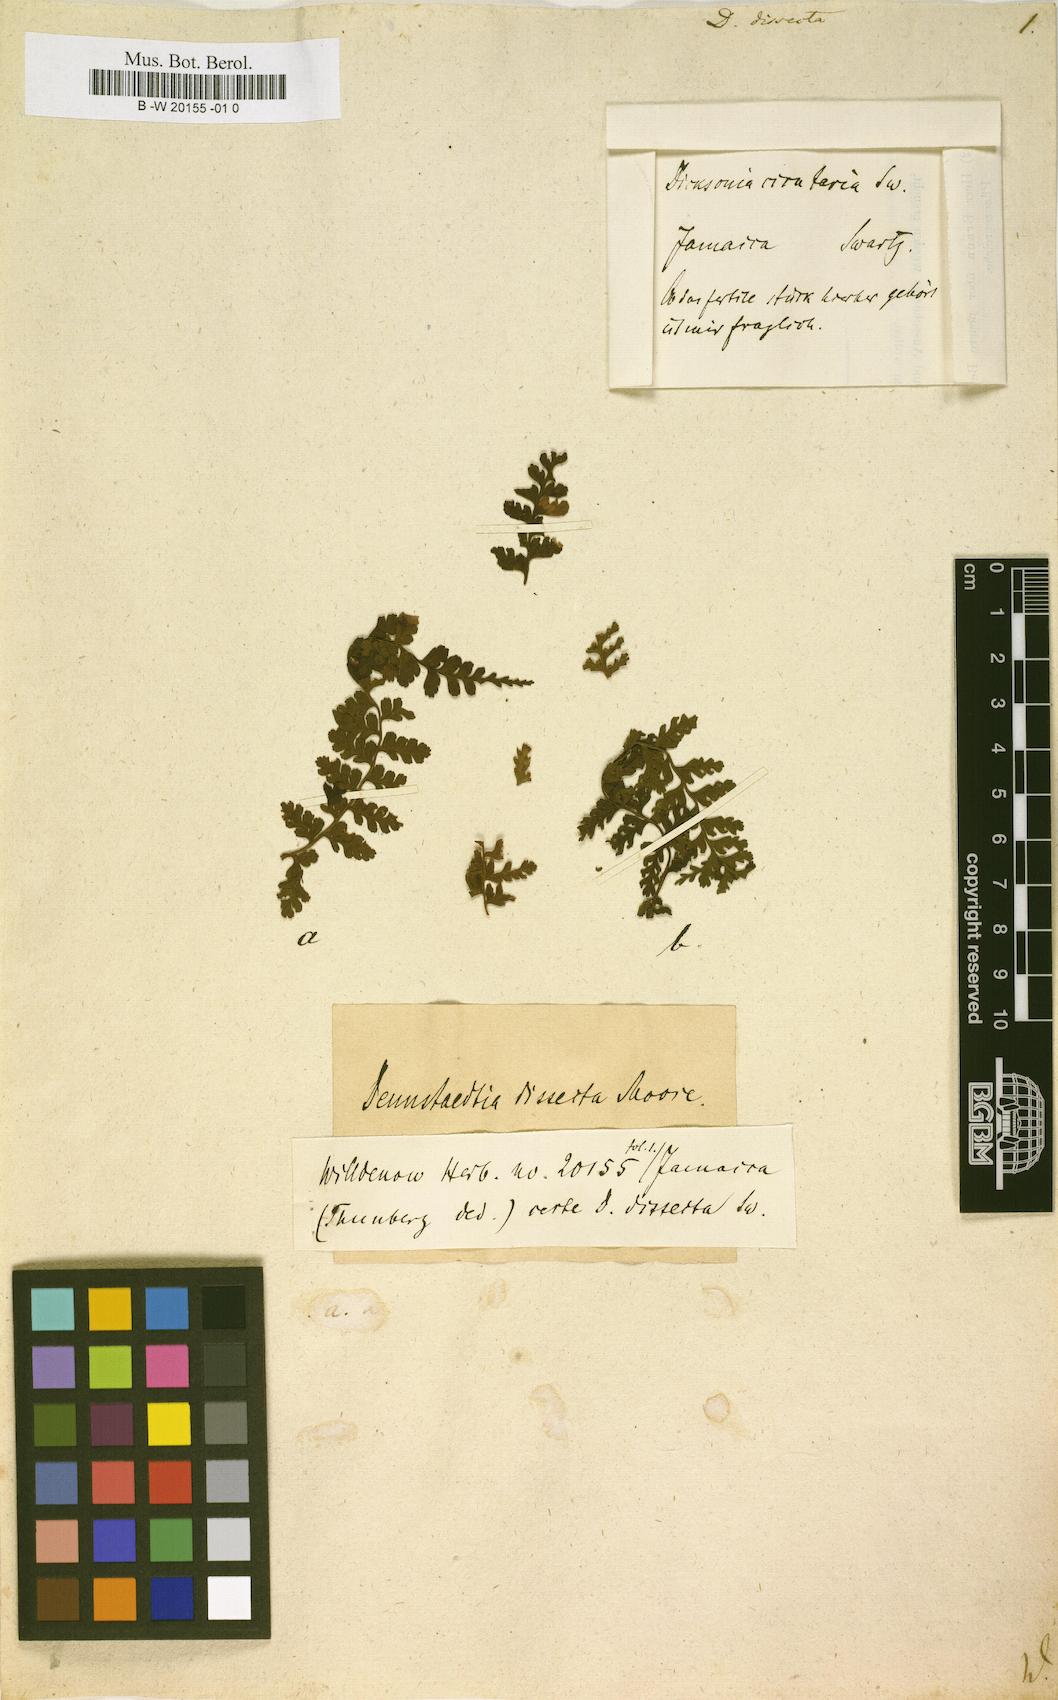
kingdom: Plantae
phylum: Tracheophyta
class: Polypodiopsida
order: Polypodiales
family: Dennstaedtiaceae
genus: Dennstaedtia
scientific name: Dennstaedtia dissecta
